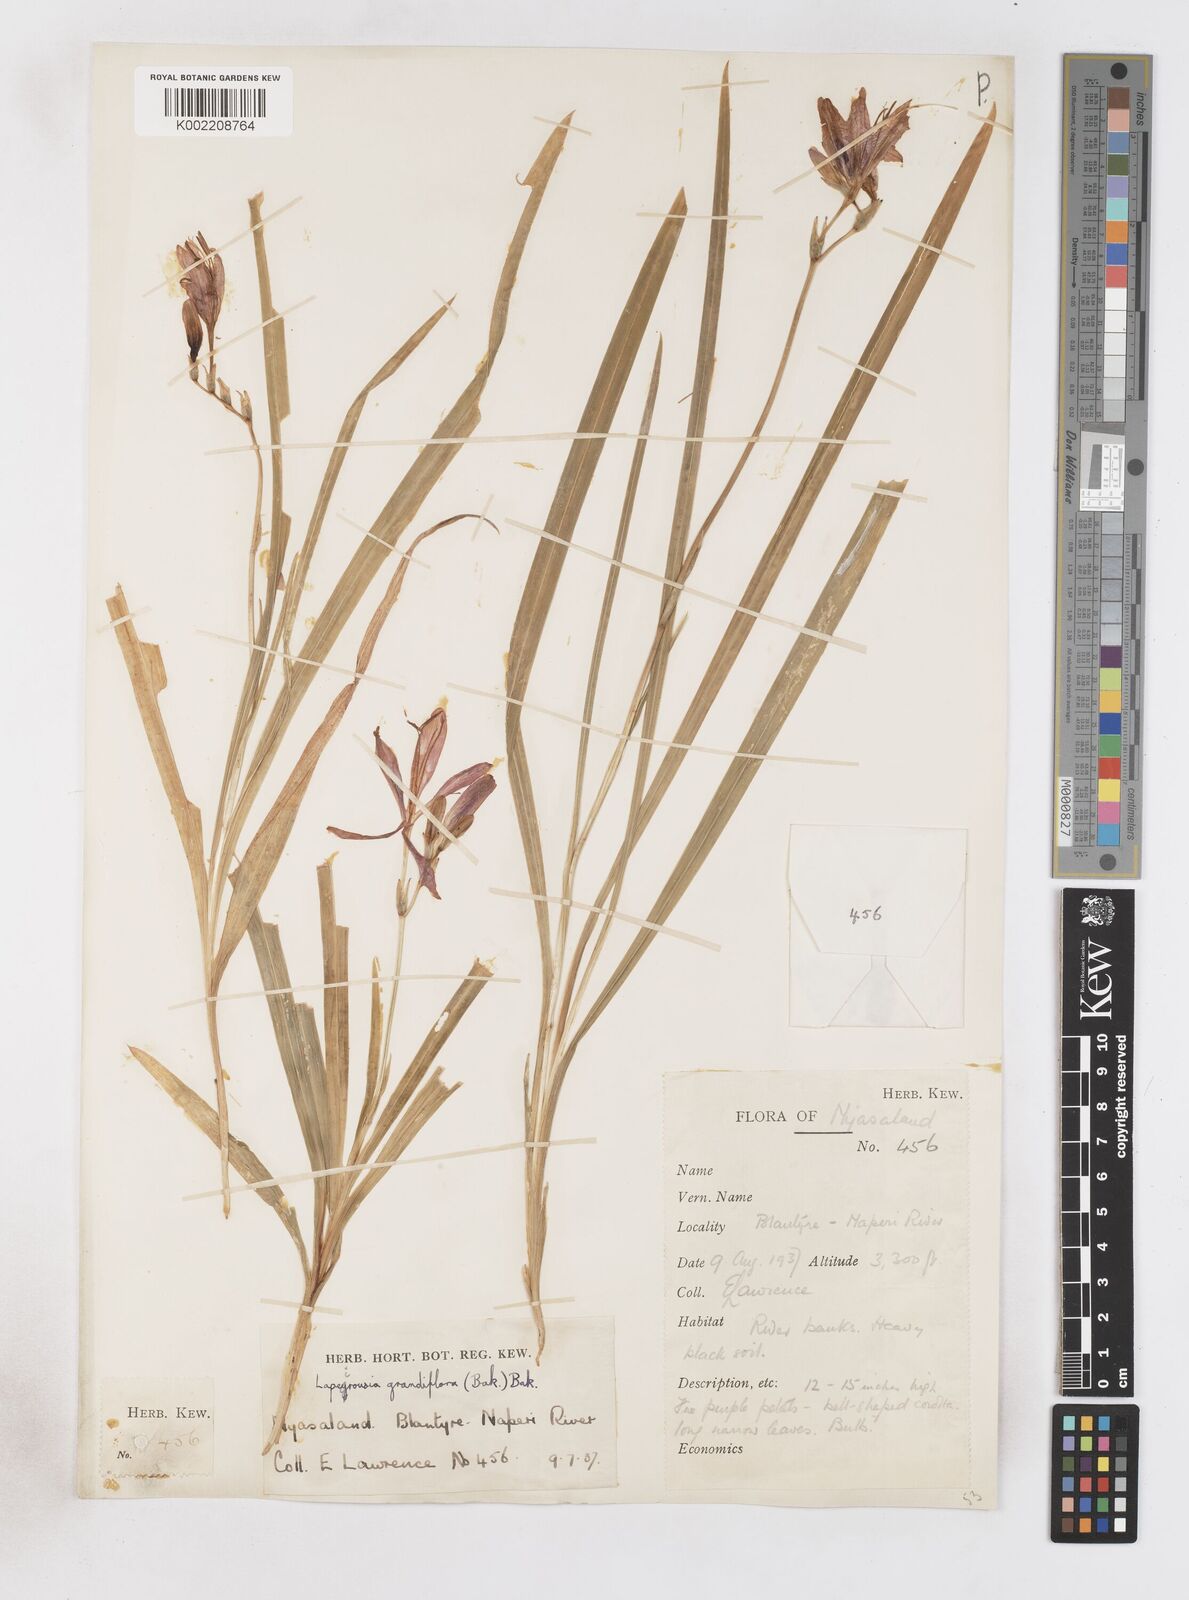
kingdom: Plantae
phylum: Tracheophyta
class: Liliopsida
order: Asparagales
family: Iridaceae
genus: Freesia
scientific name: Freesia grandiflora
